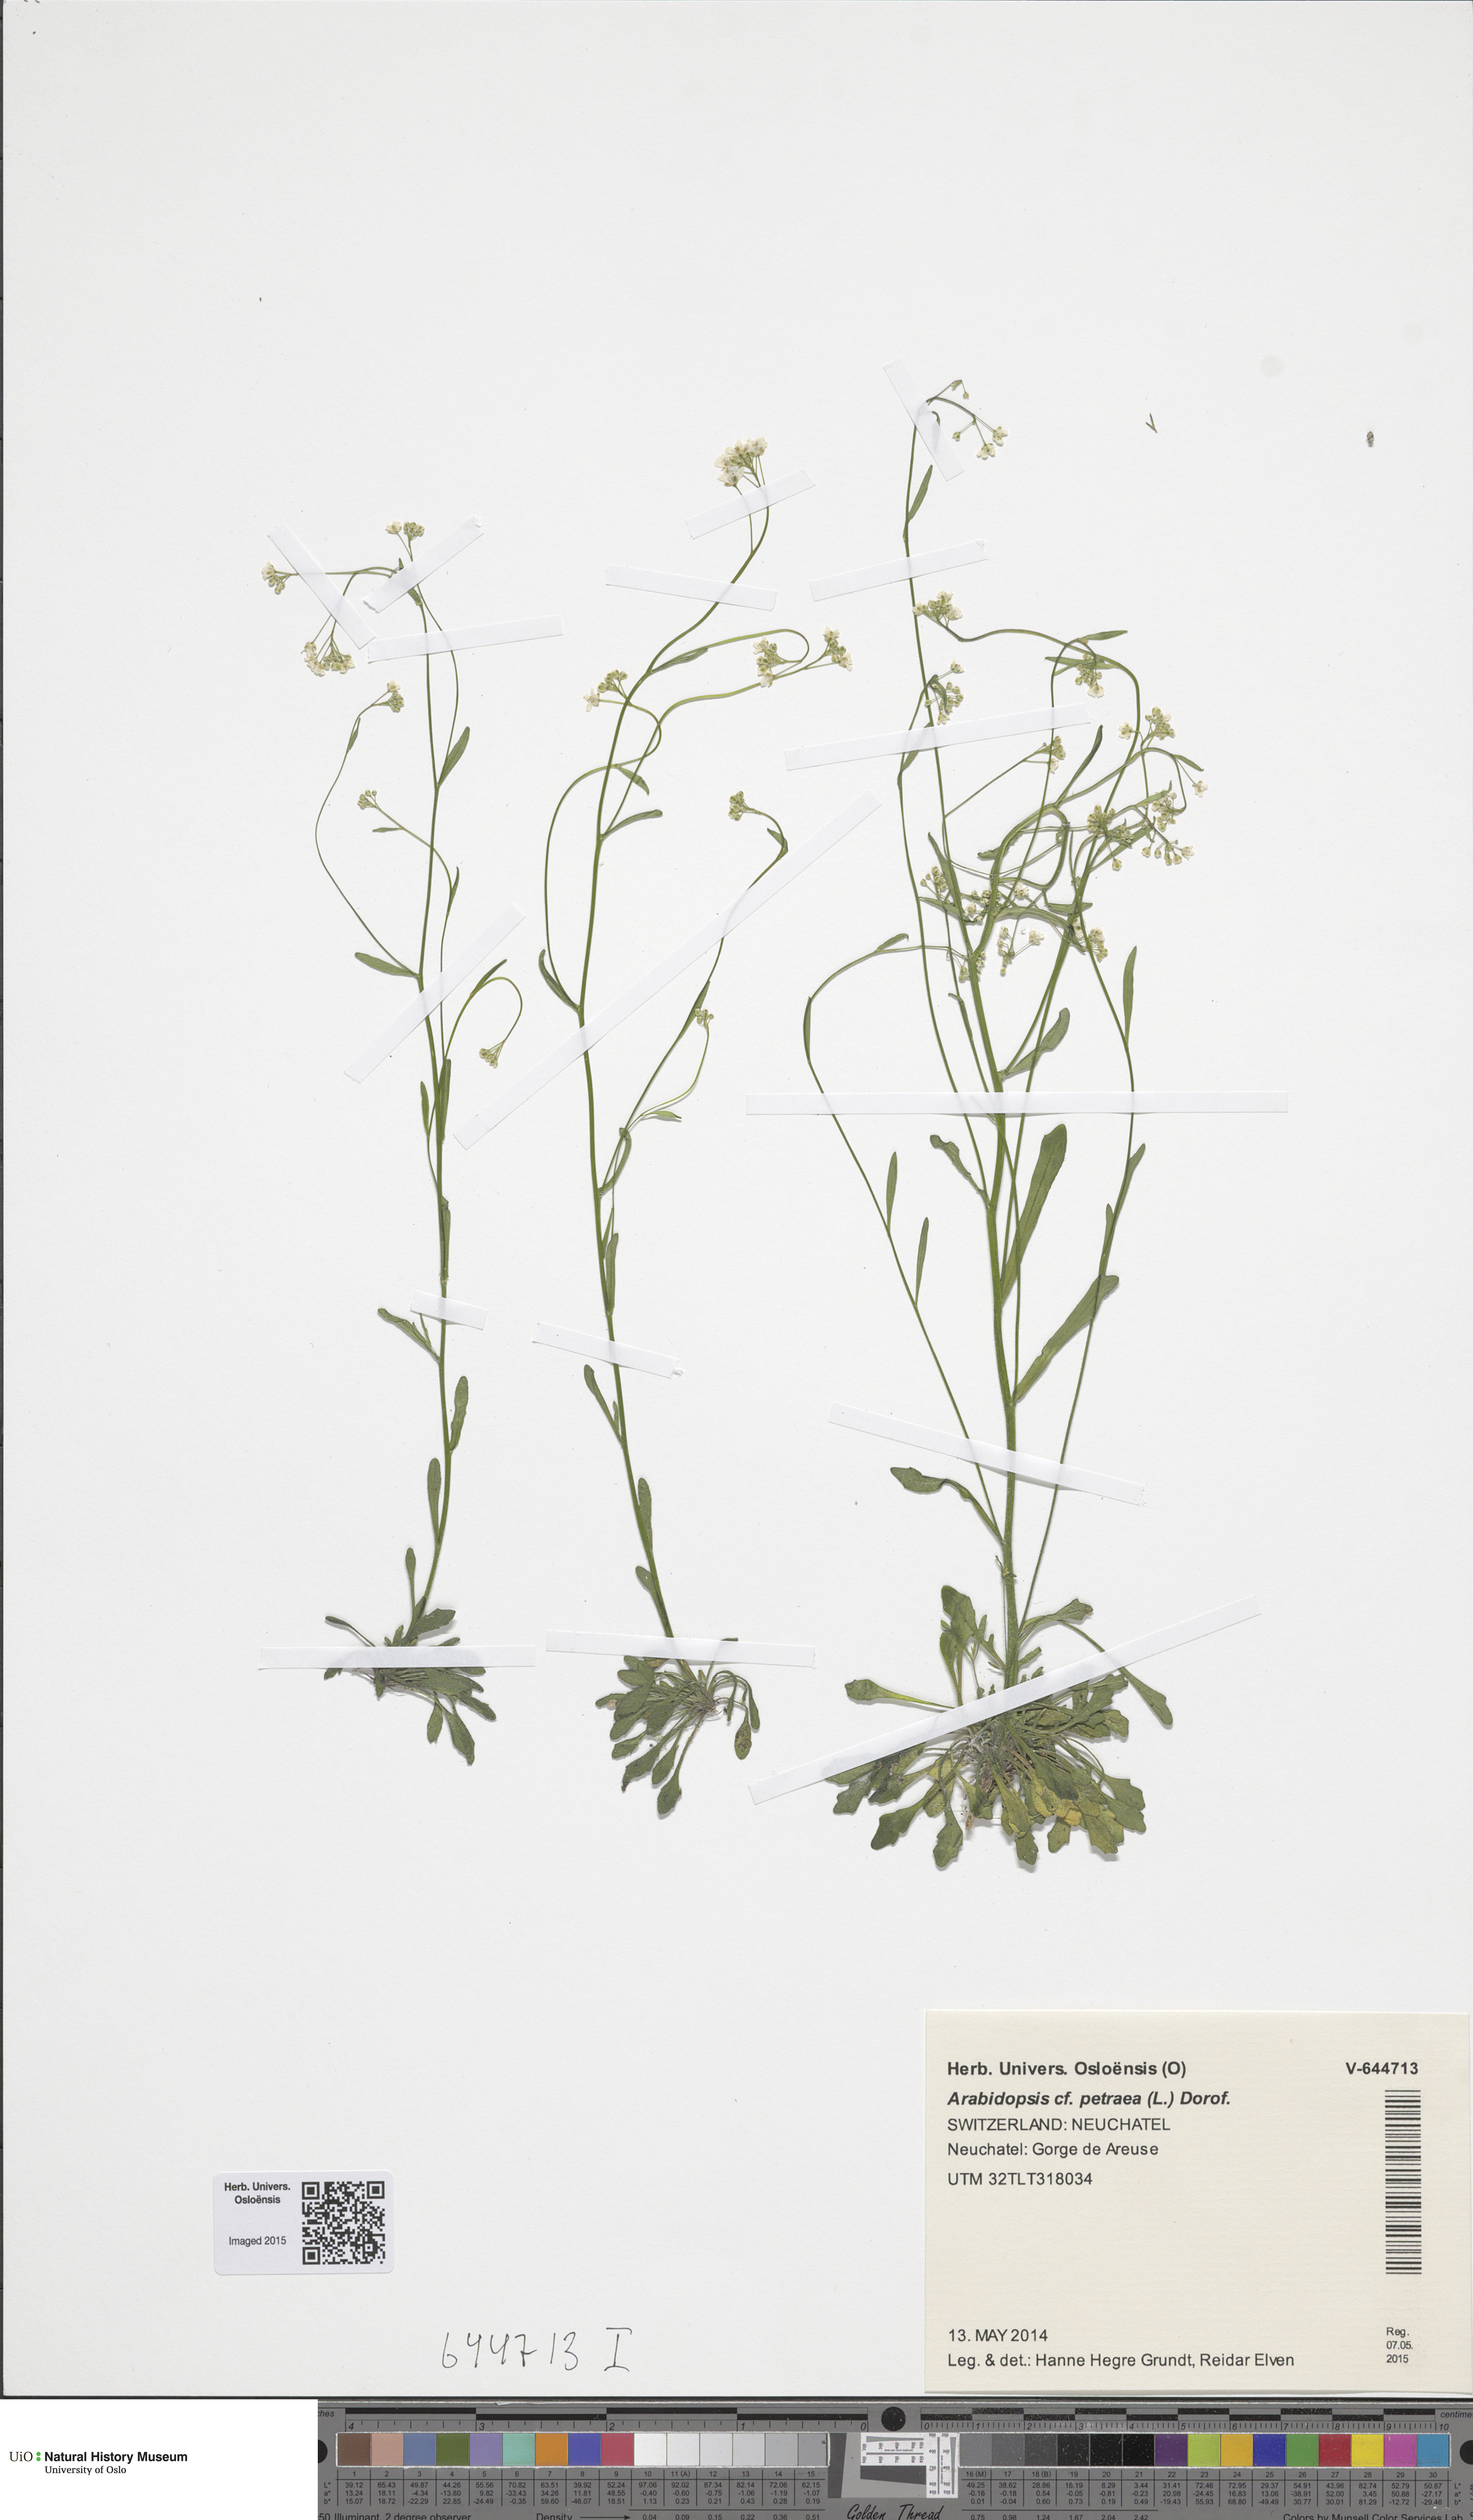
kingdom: Plantae
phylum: Tracheophyta
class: Magnoliopsida
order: Brassicales
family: Brassicaceae
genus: Arabidopsis
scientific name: Arabidopsis petraea
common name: Northern rock-cress
